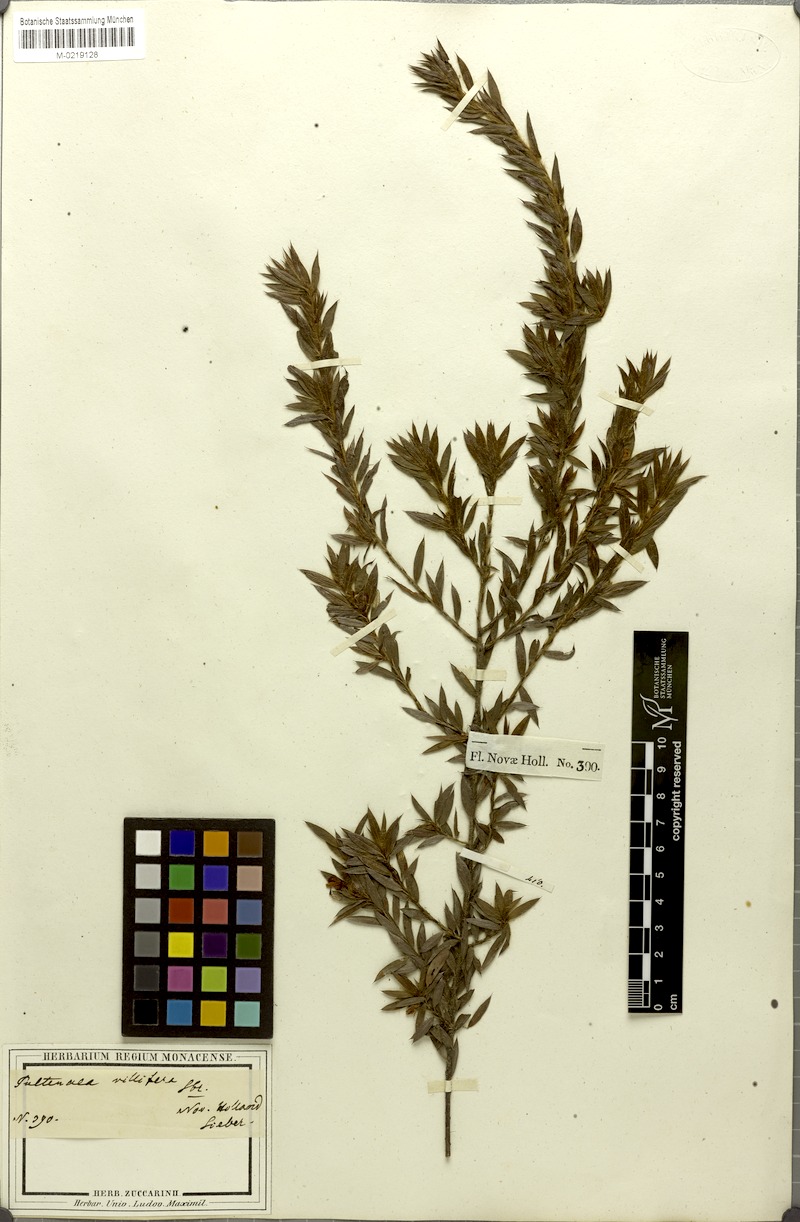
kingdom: Plantae
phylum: Tracheophyta
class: Magnoliopsida
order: Fabales
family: Fabaceae
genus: Pultenaea
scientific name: Pultenaea villifera
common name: Yellow bush-pea
